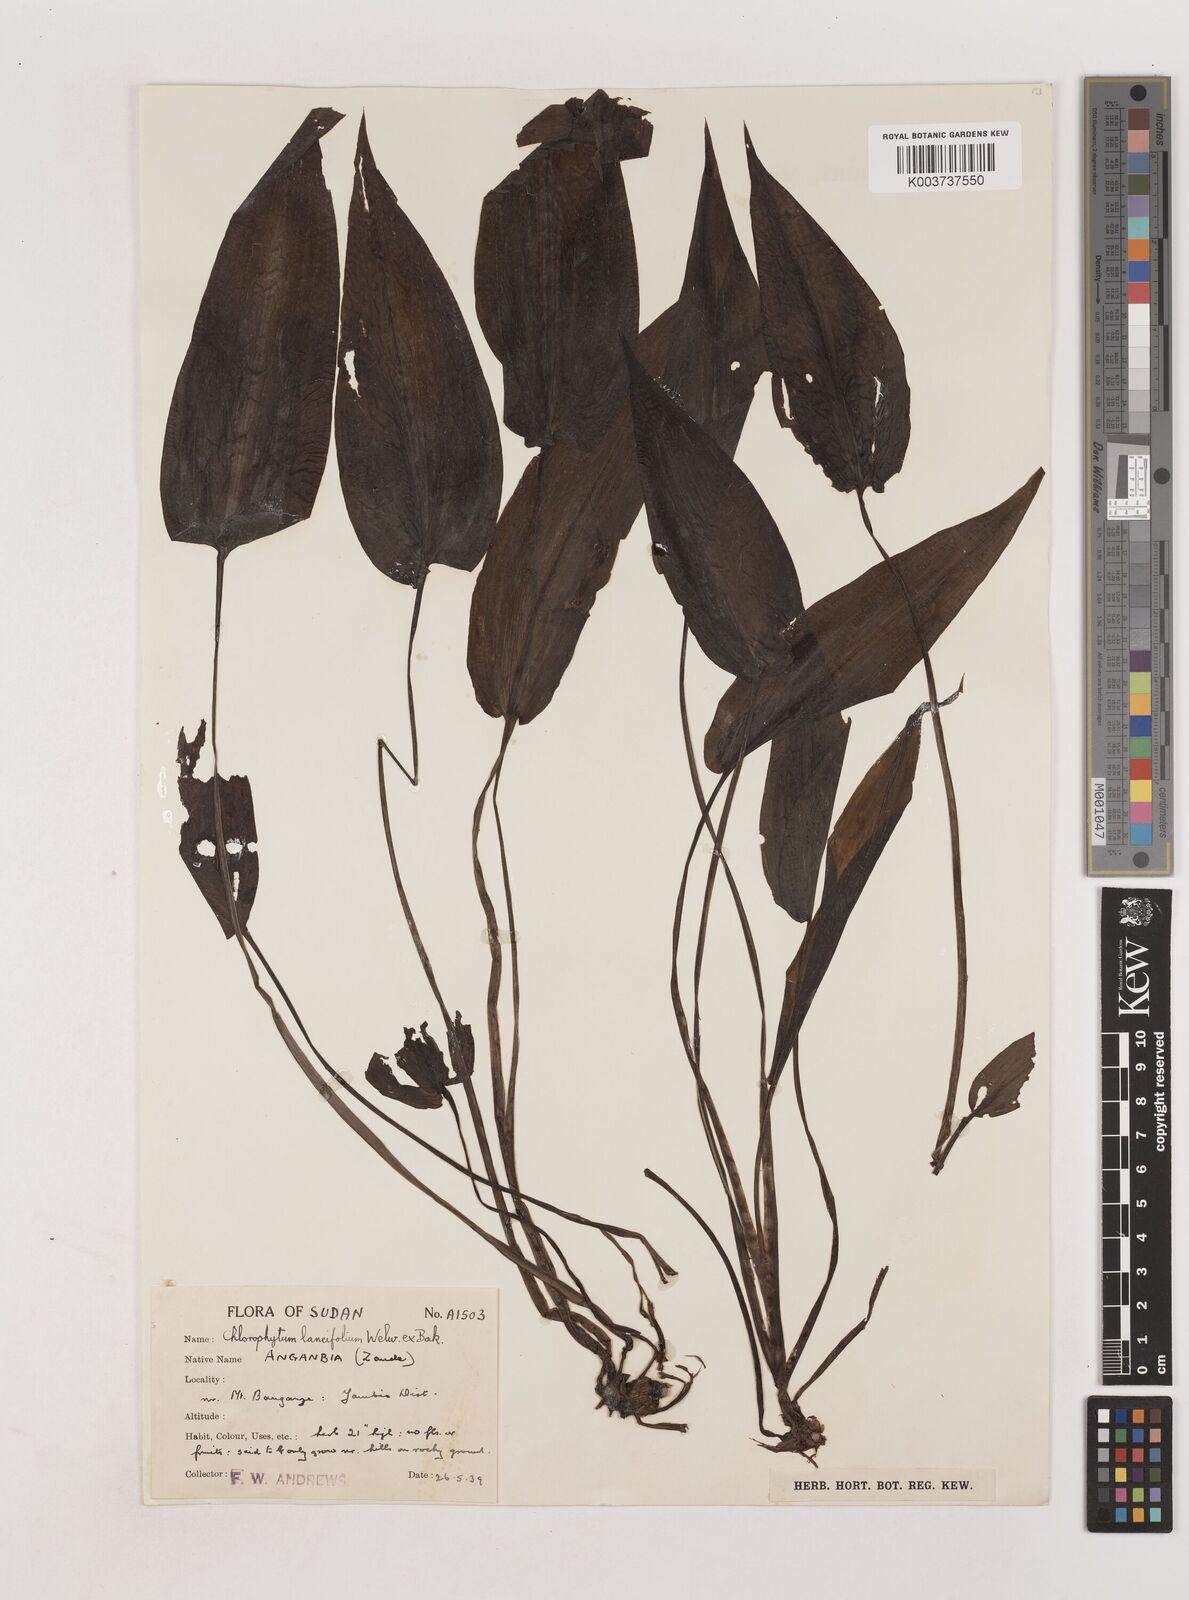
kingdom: Plantae
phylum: Tracheophyta
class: Liliopsida
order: Asparagales
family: Asparagaceae
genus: Chlorophytum
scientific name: Chlorophytum lancifolium
